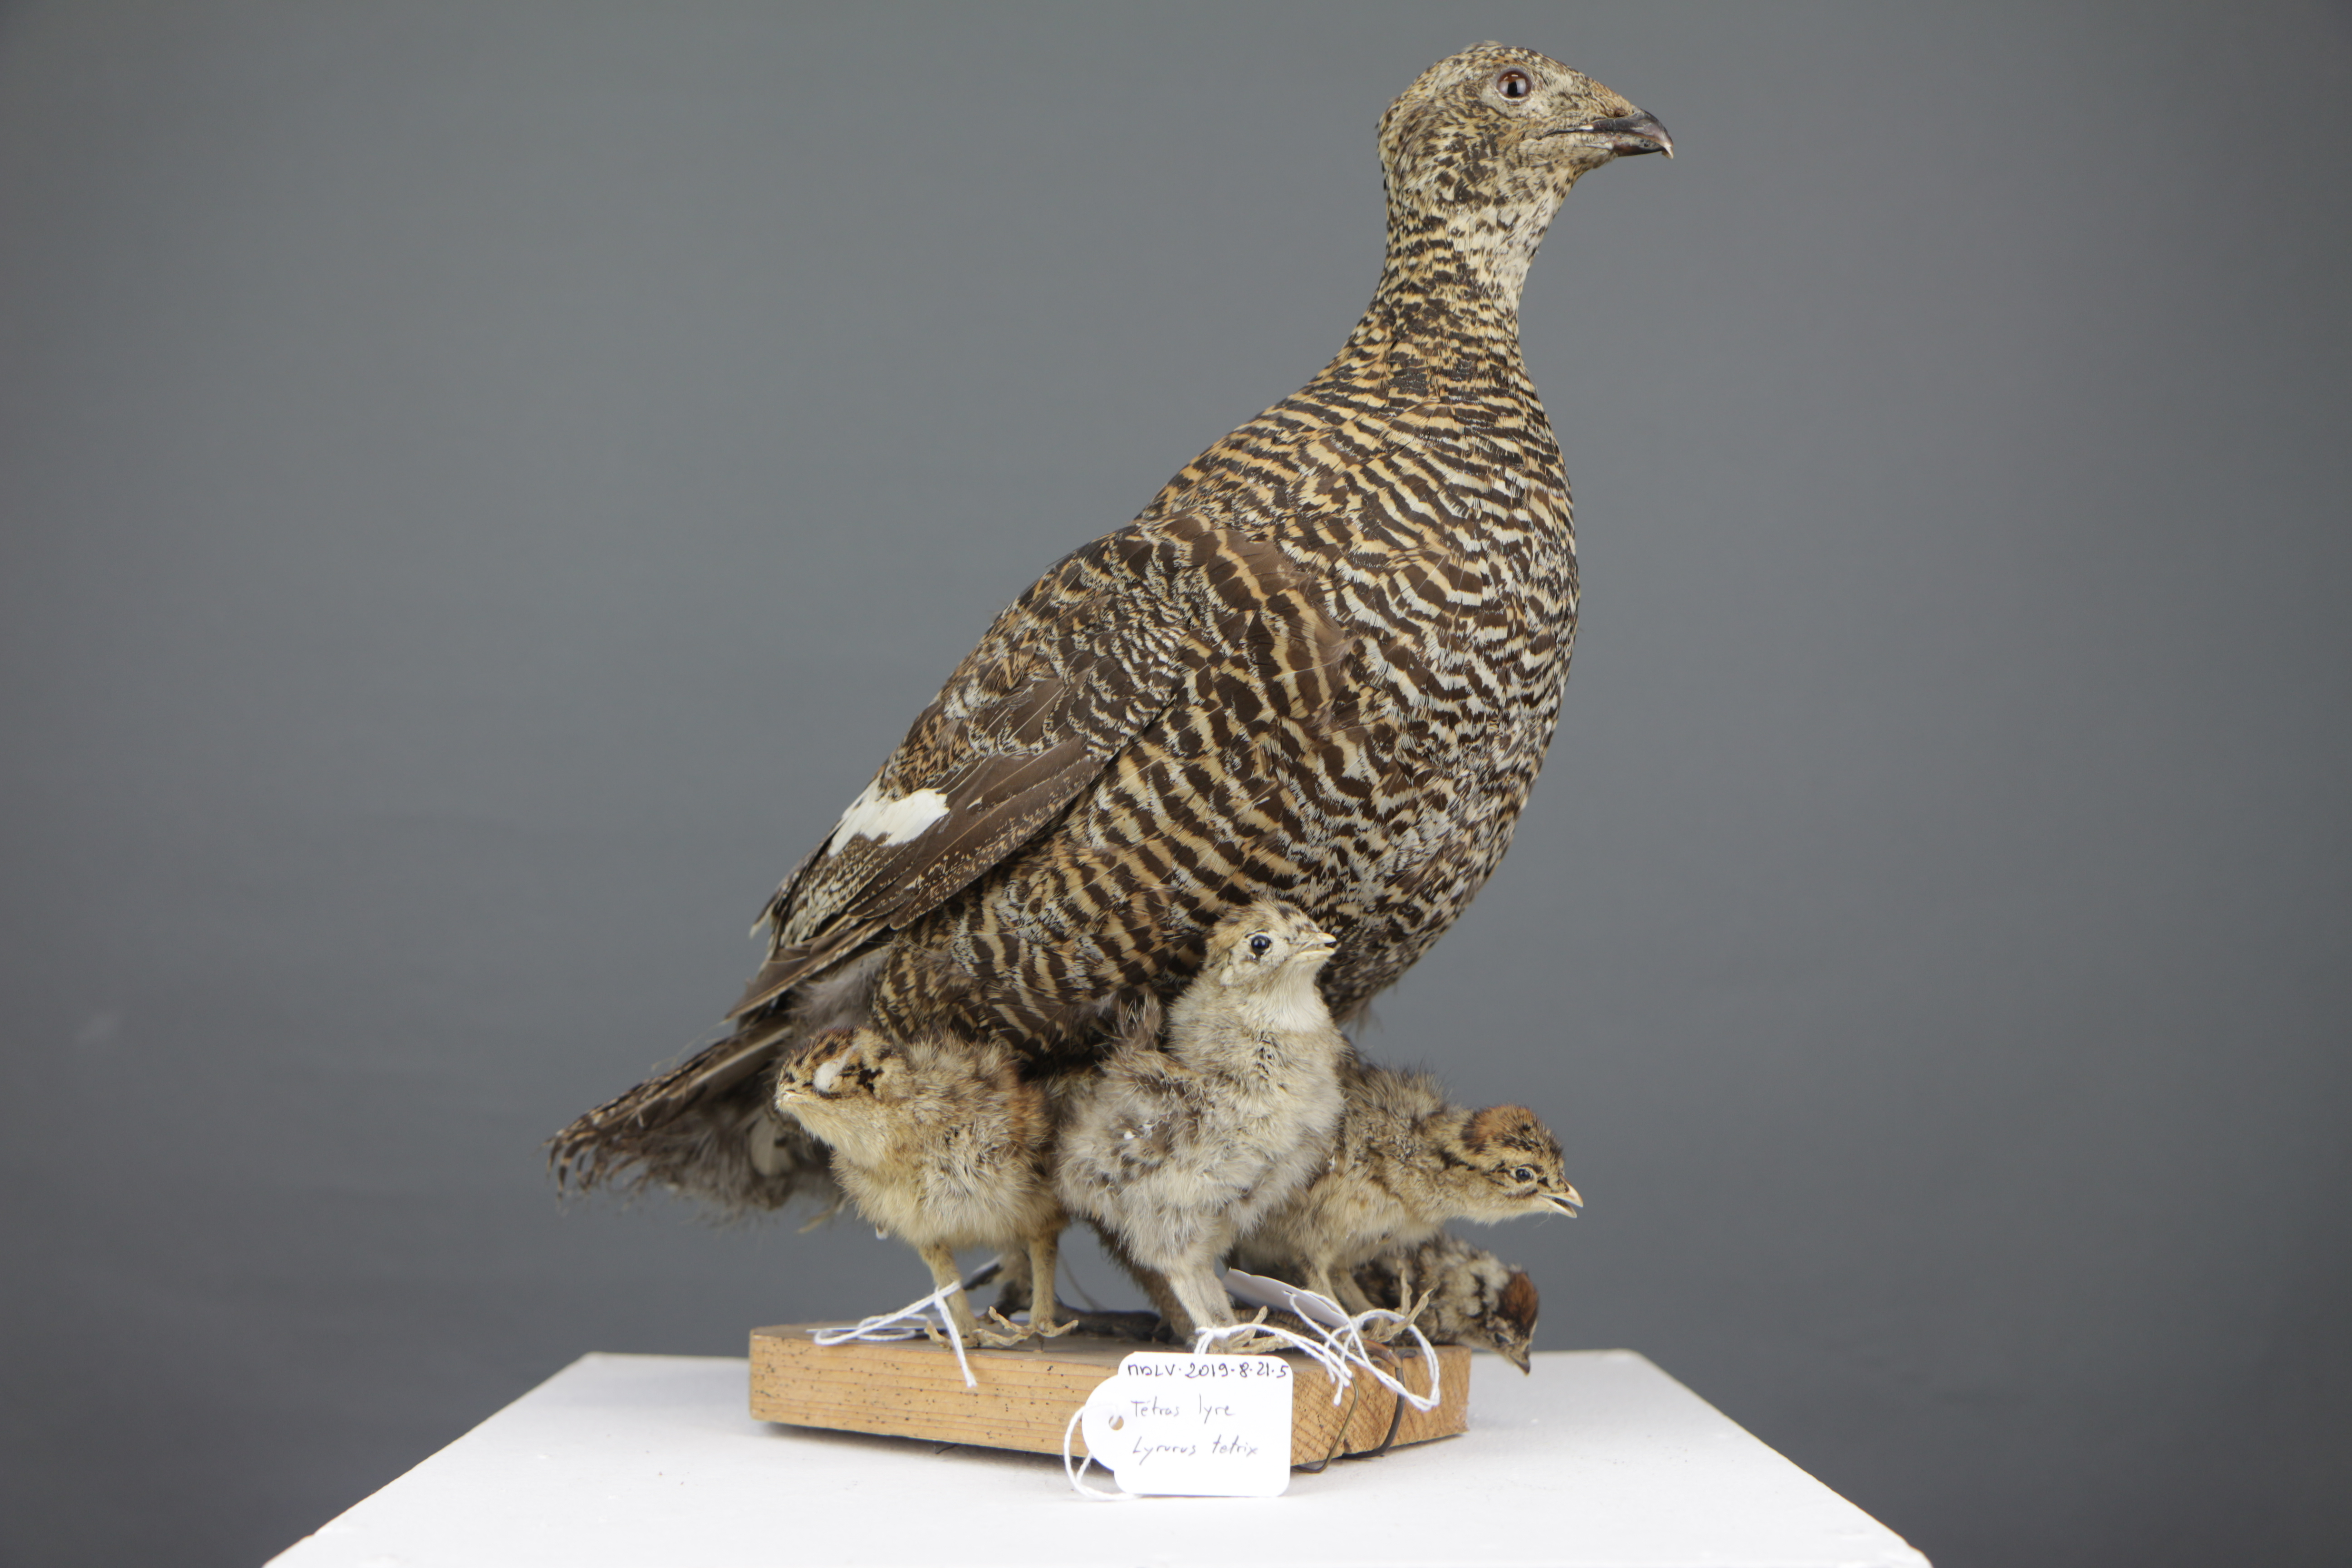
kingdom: Animalia
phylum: Chordata
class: Aves
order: Galliformes
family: Phasianidae
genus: Lyrurus
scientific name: Lyrurus tetrix
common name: Black grouse
